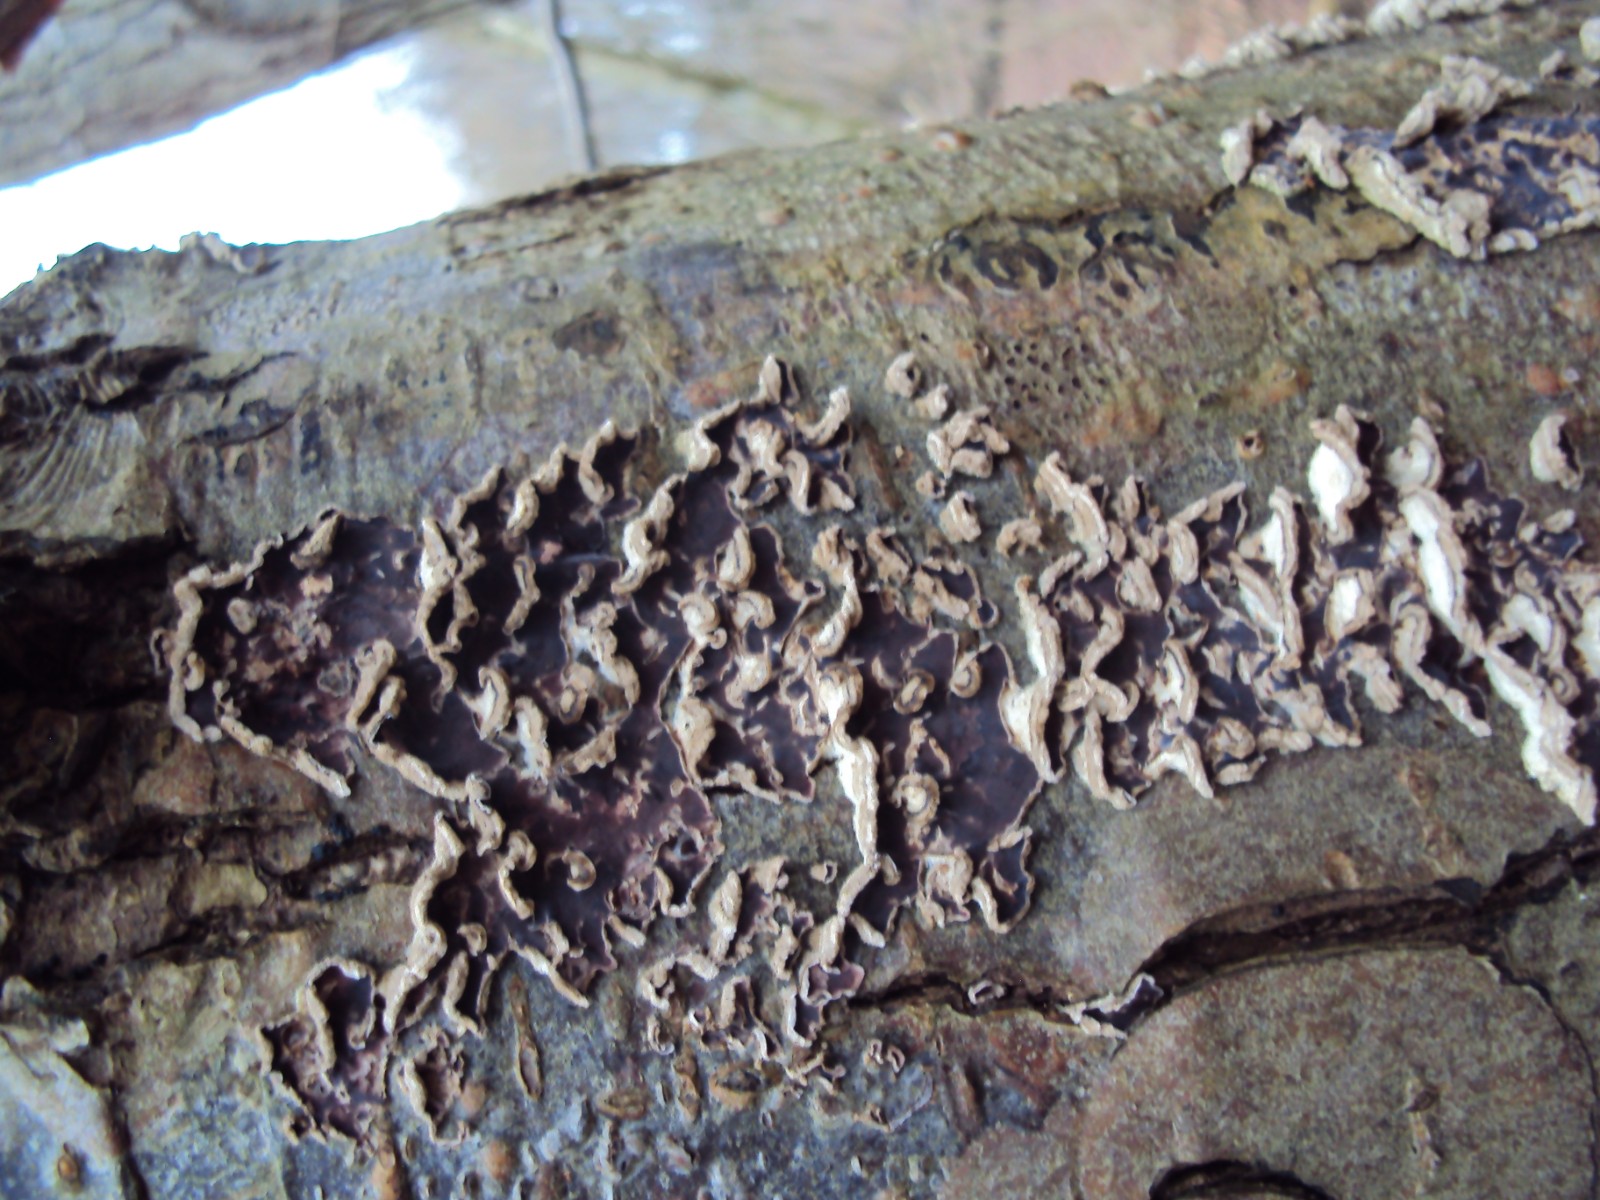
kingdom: Fungi
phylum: Basidiomycota
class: Agaricomycetes
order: Agaricales
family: Cyphellaceae
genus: Chondrostereum
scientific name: Chondrostereum purpureum
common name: purpurlædersvamp
